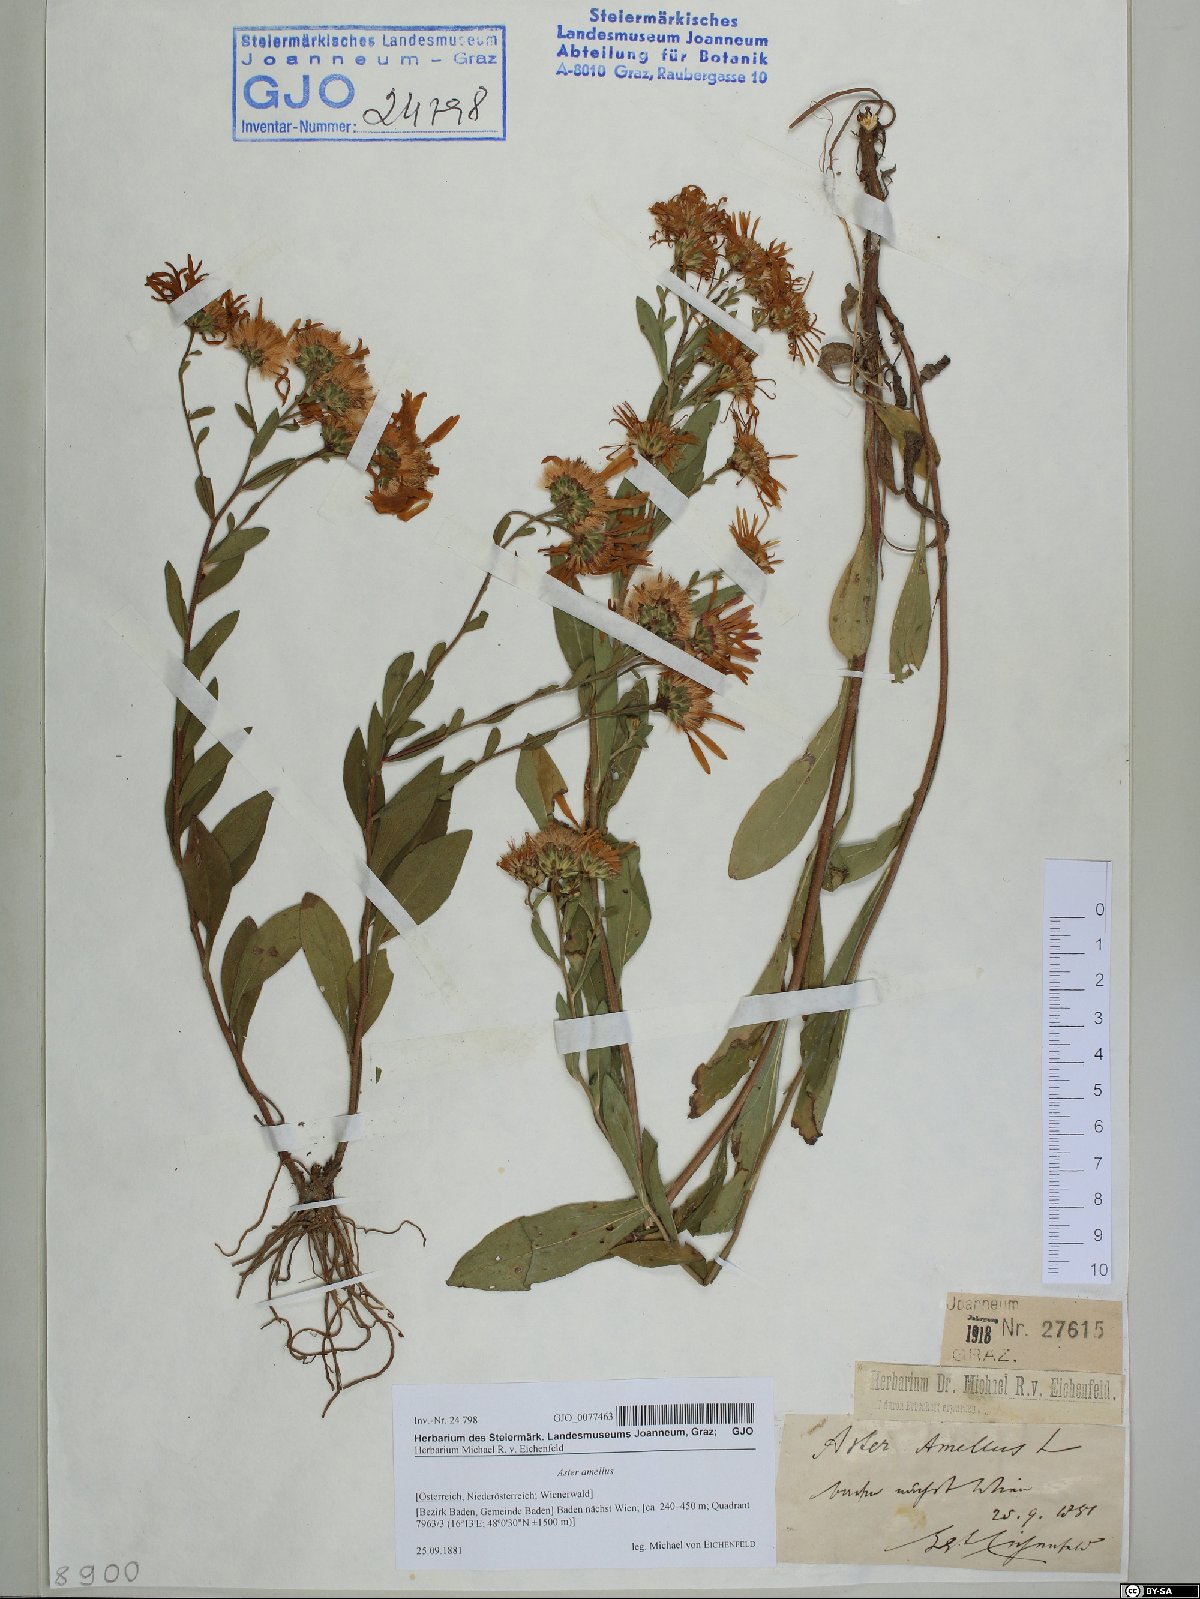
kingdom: Plantae
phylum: Tracheophyta
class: Magnoliopsida
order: Asterales
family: Asteraceae
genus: Aster
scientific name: Aster amellus
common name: European michaelmas daisy
